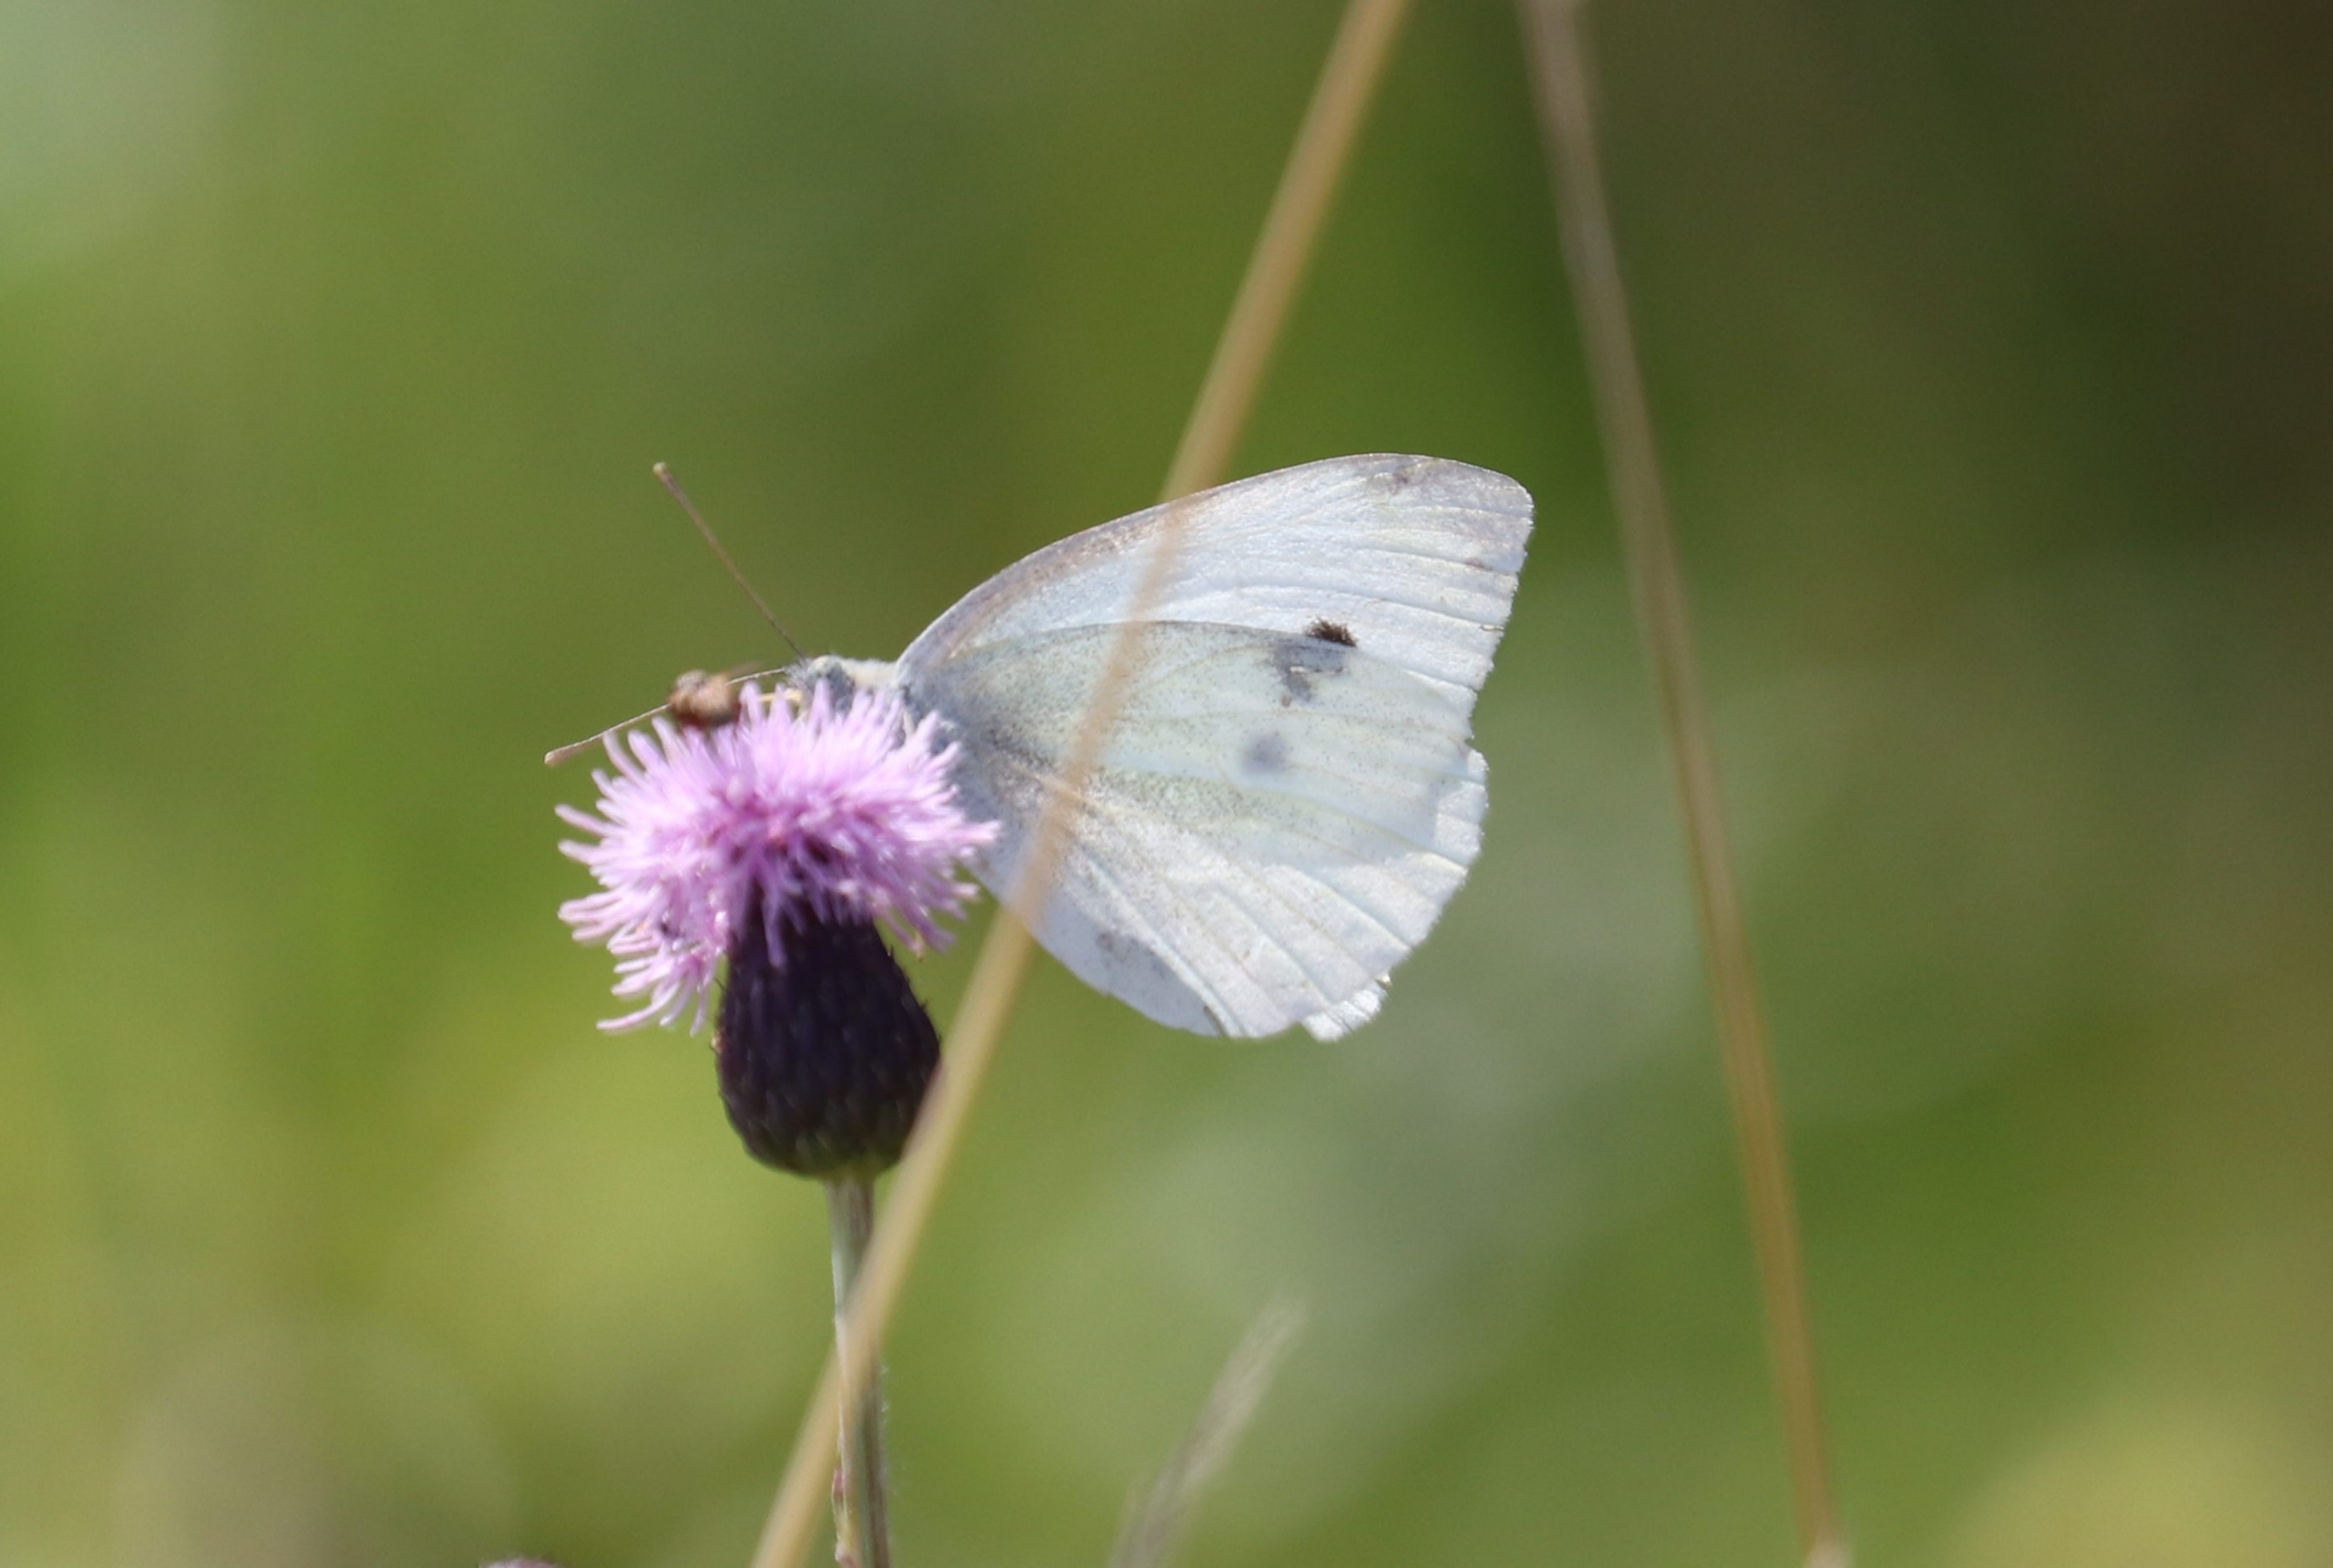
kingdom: Animalia
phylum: Arthropoda
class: Insecta
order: Lepidoptera
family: Pieridae
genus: Pieris
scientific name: Pieris rapae
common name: Lille kålsommerfugl
